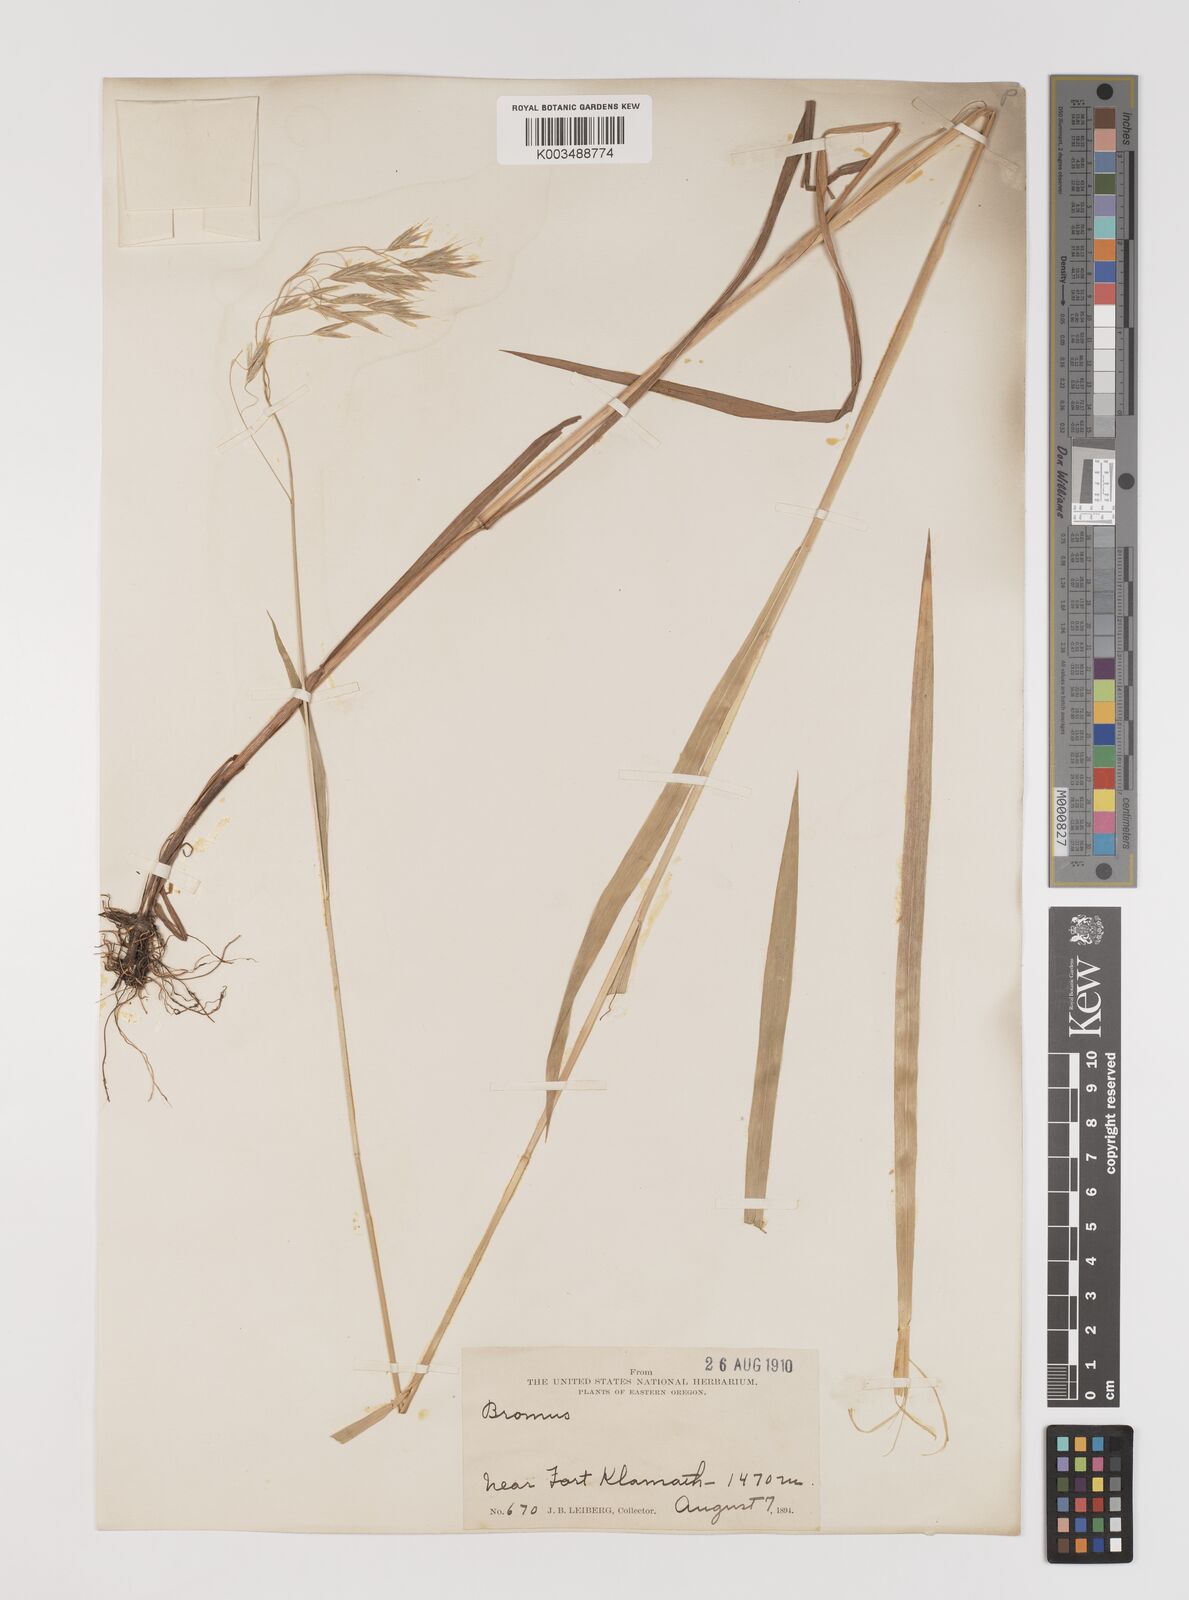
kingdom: Plantae
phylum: Tracheophyta
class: Liliopsida
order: Poales
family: Poaceae
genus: Bromus
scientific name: Bromus
